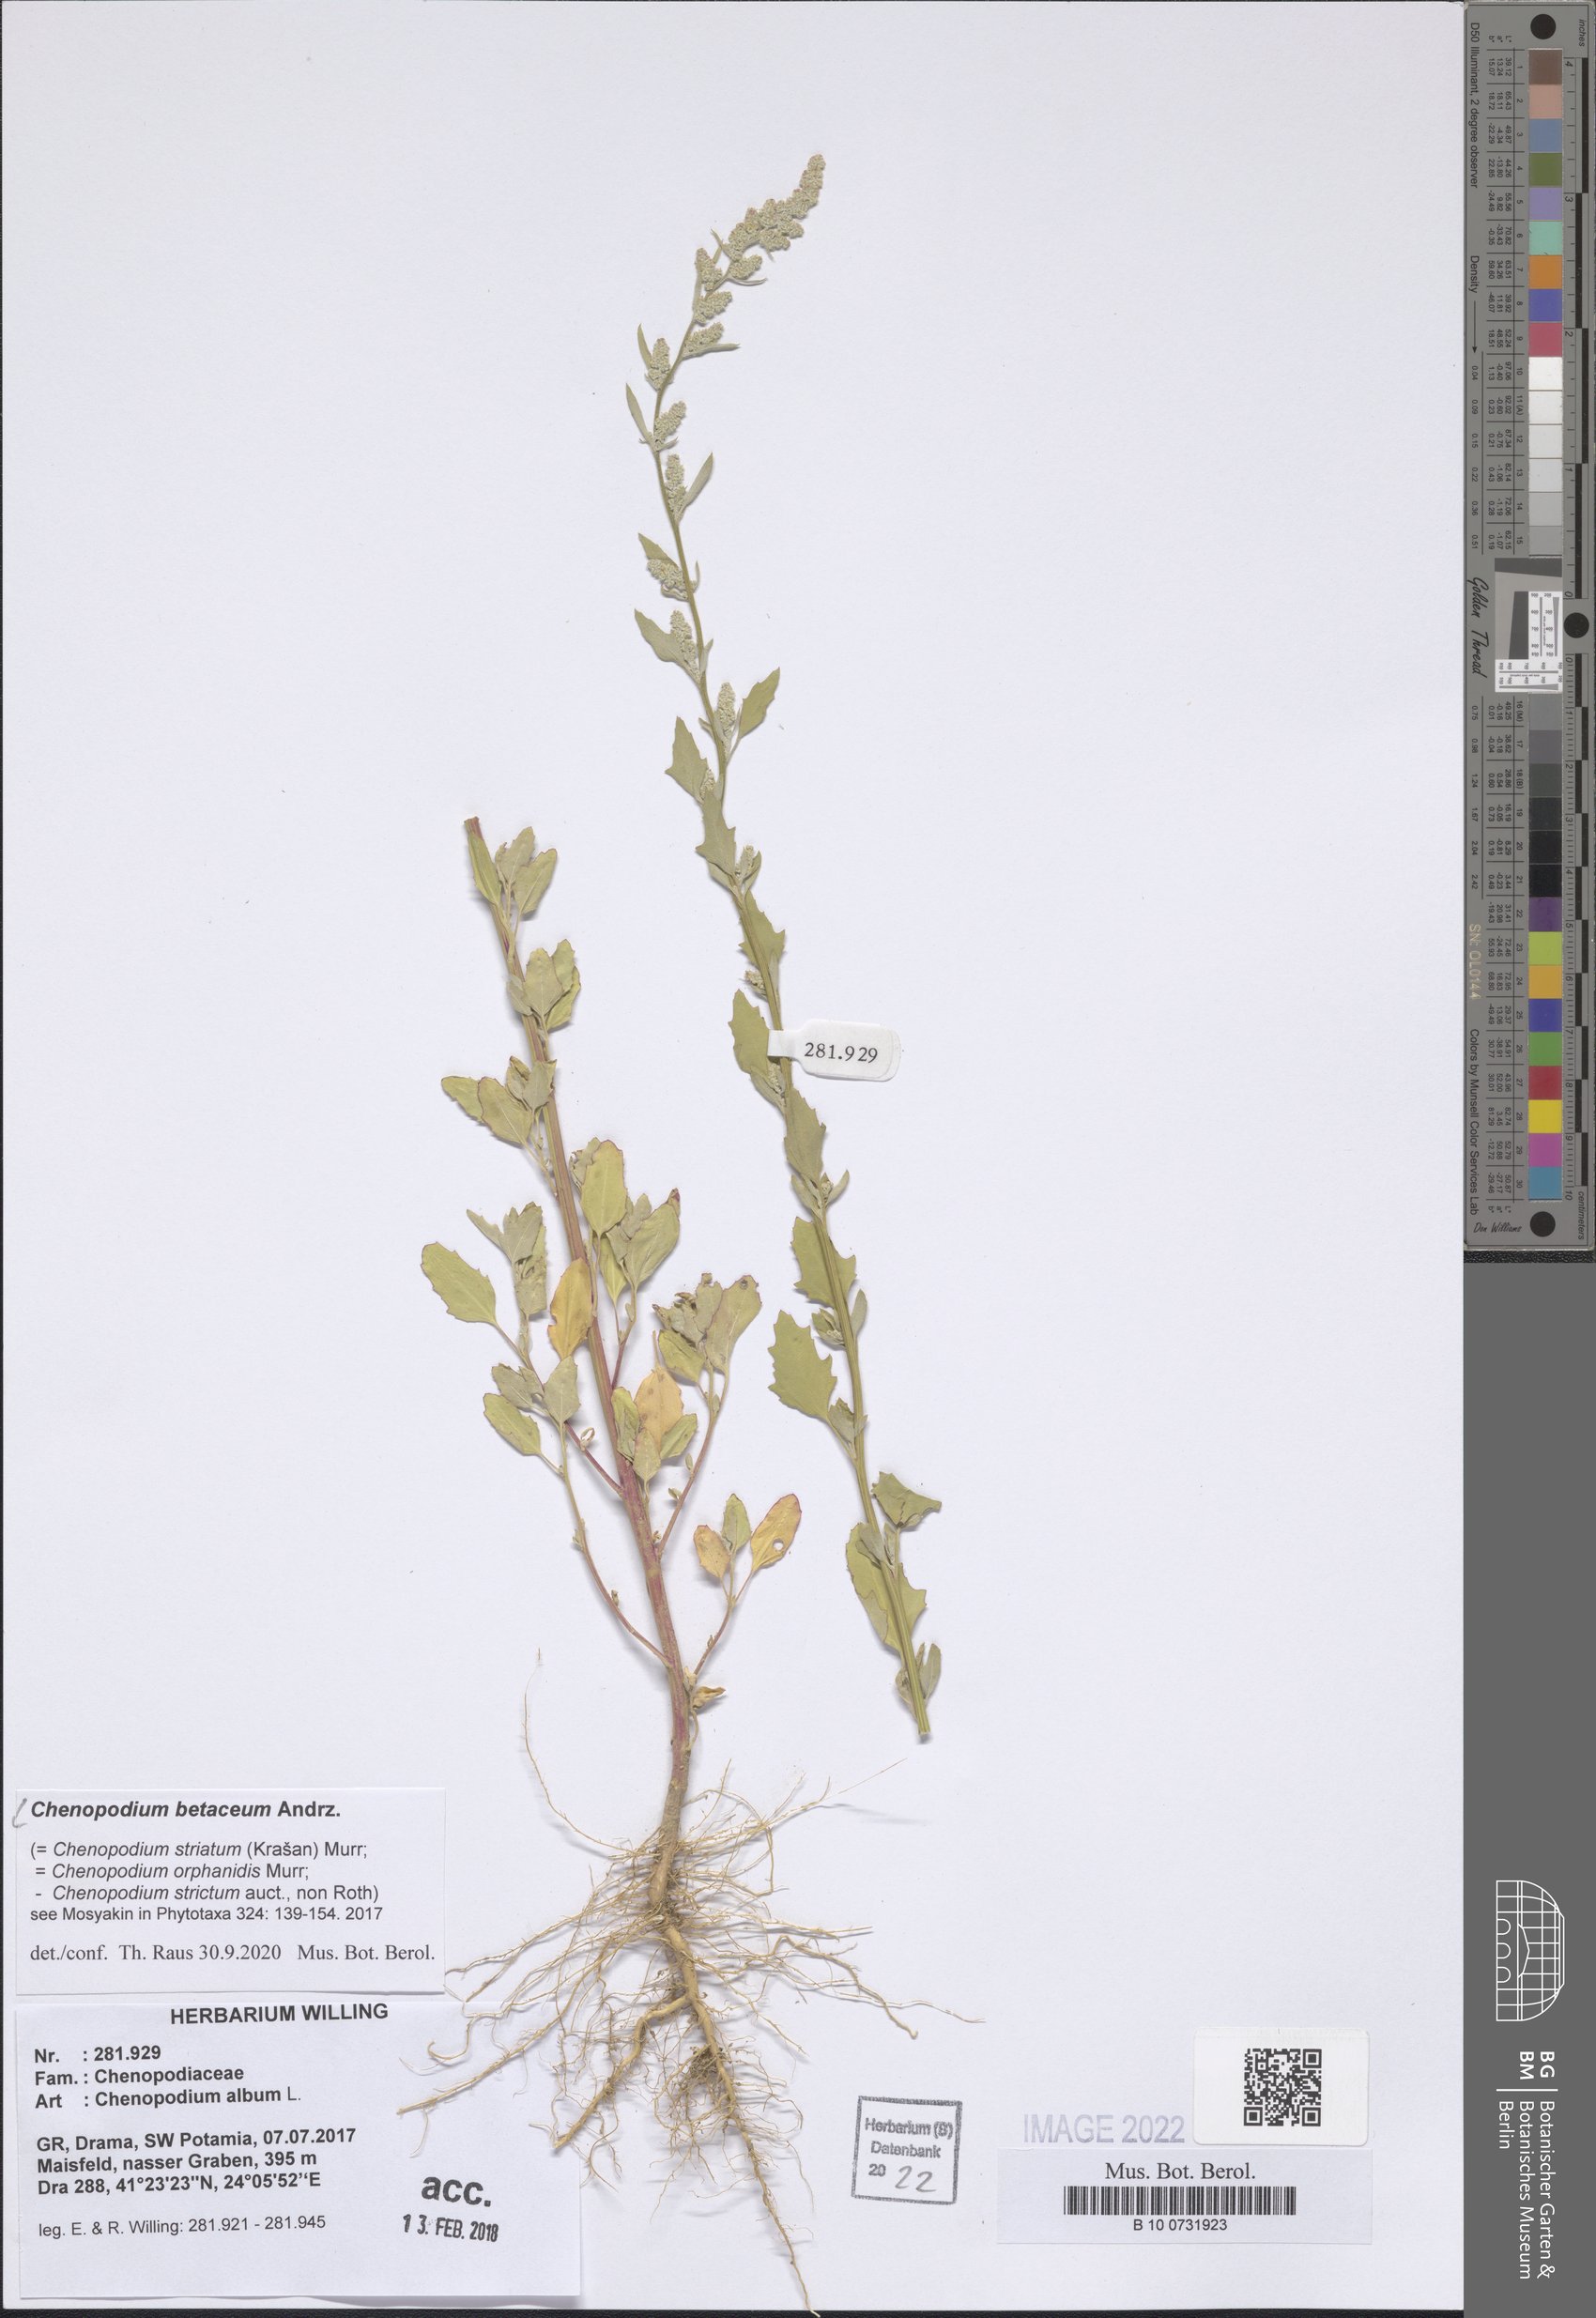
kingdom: Plantae
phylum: Tracheophyta
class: Magnoliopsida
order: Caryophyllales
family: Amaranthaceae
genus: Chenopodium
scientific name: Chenopodium betaceum
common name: Striped goosefoot
